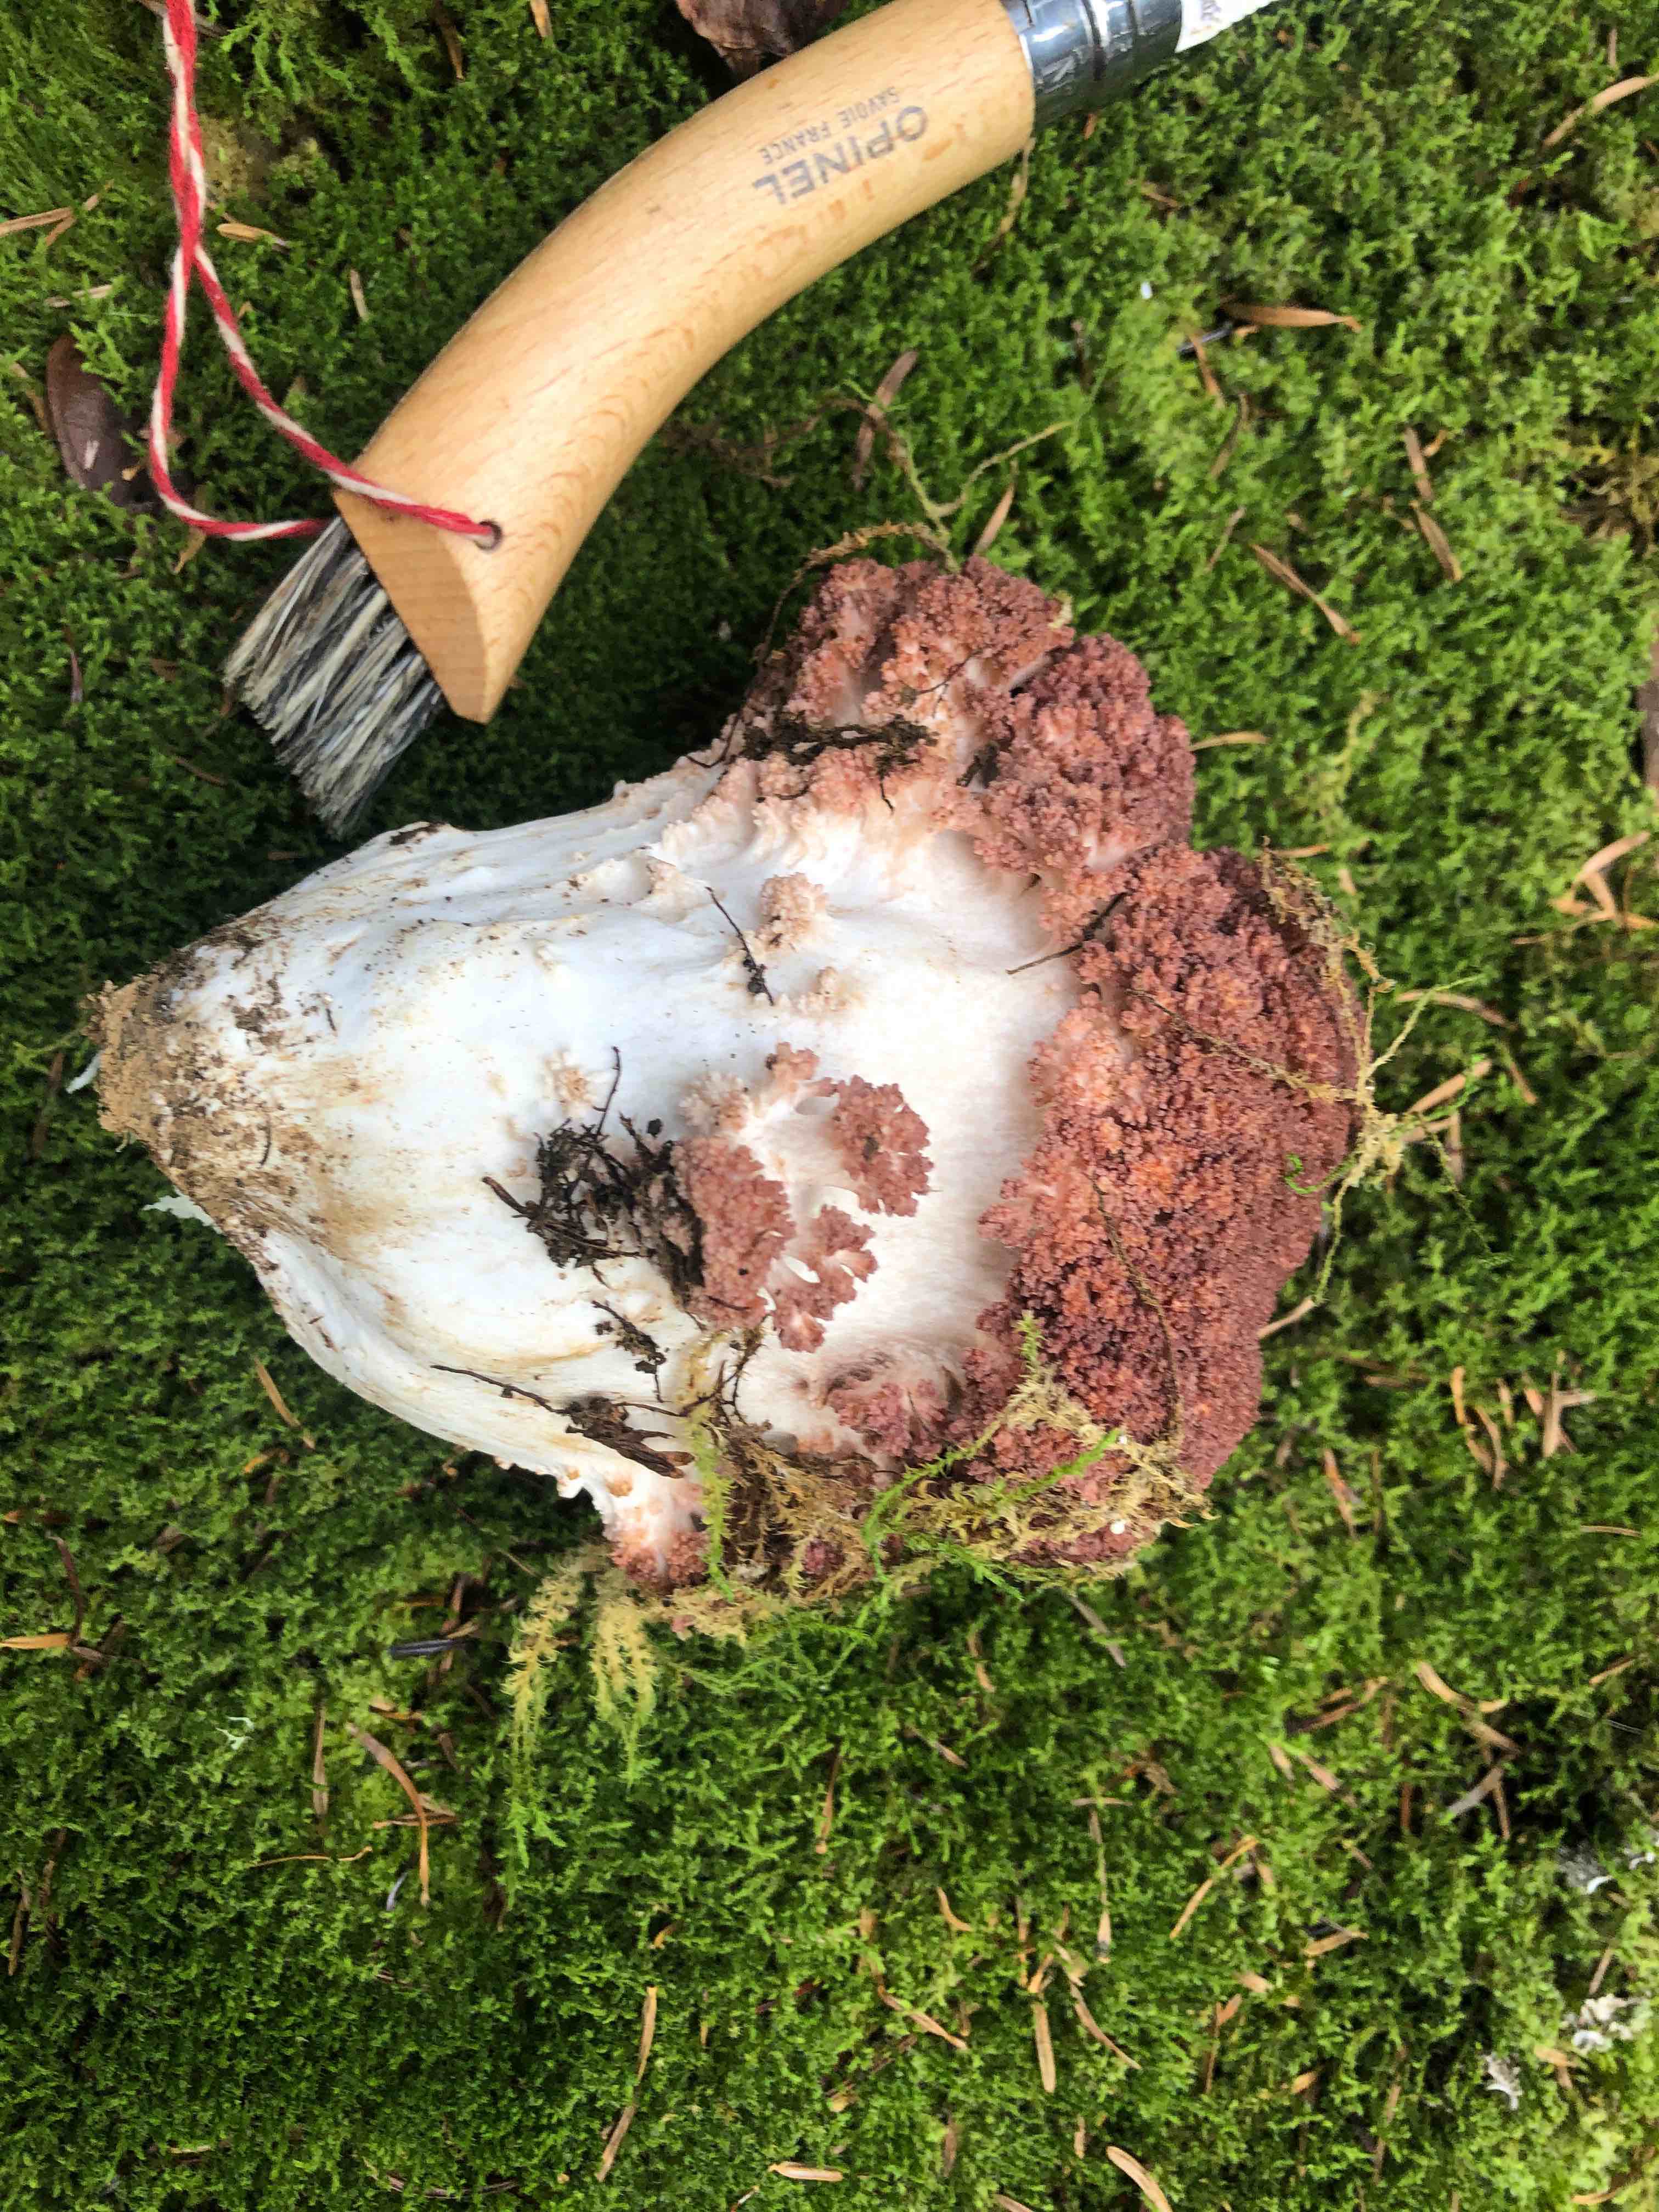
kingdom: Fungi
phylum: Basidiomycota
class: Agaricomycetes
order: Gomphales
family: Gomphaceae
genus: Ramaria
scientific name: Ramaria botrytis
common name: drue-koralsvamp
